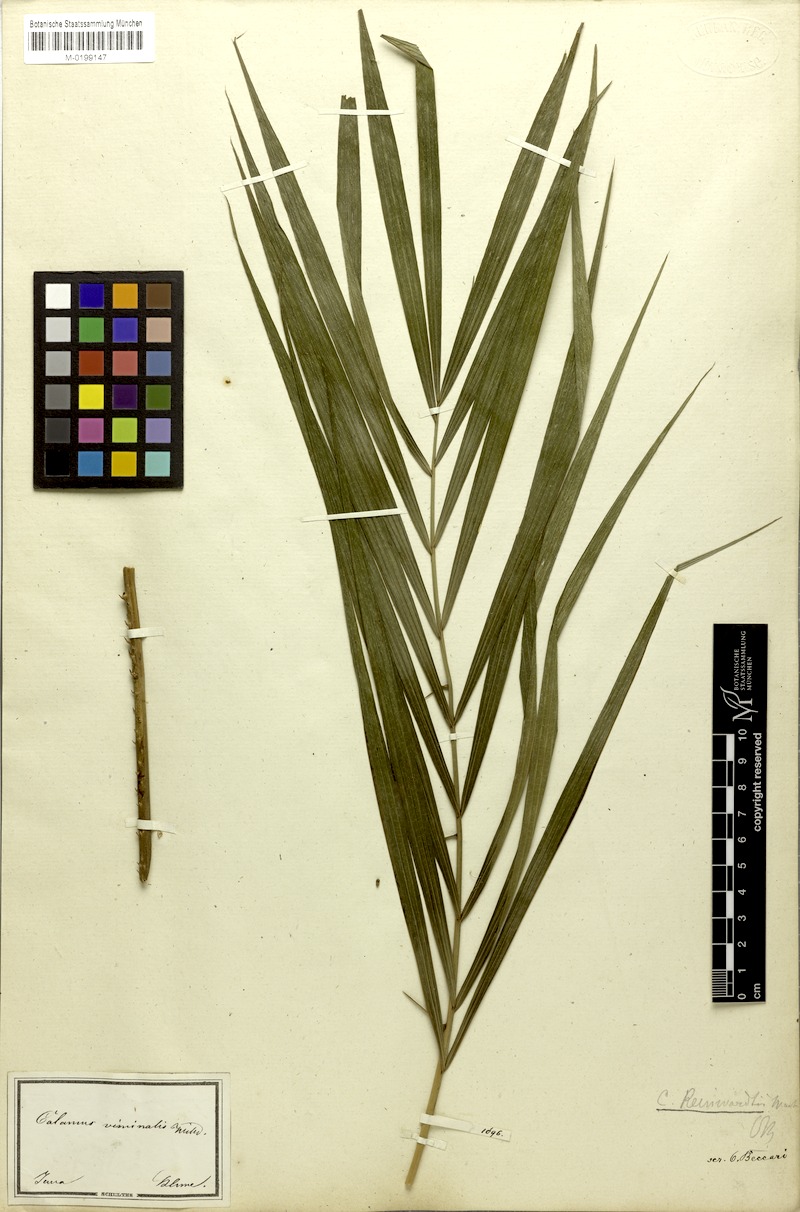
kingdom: Plantae
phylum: Tracheophyta
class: Liliopsida
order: Arecales
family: Arecaceae
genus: Calamus
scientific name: Calamus reinwardtii
